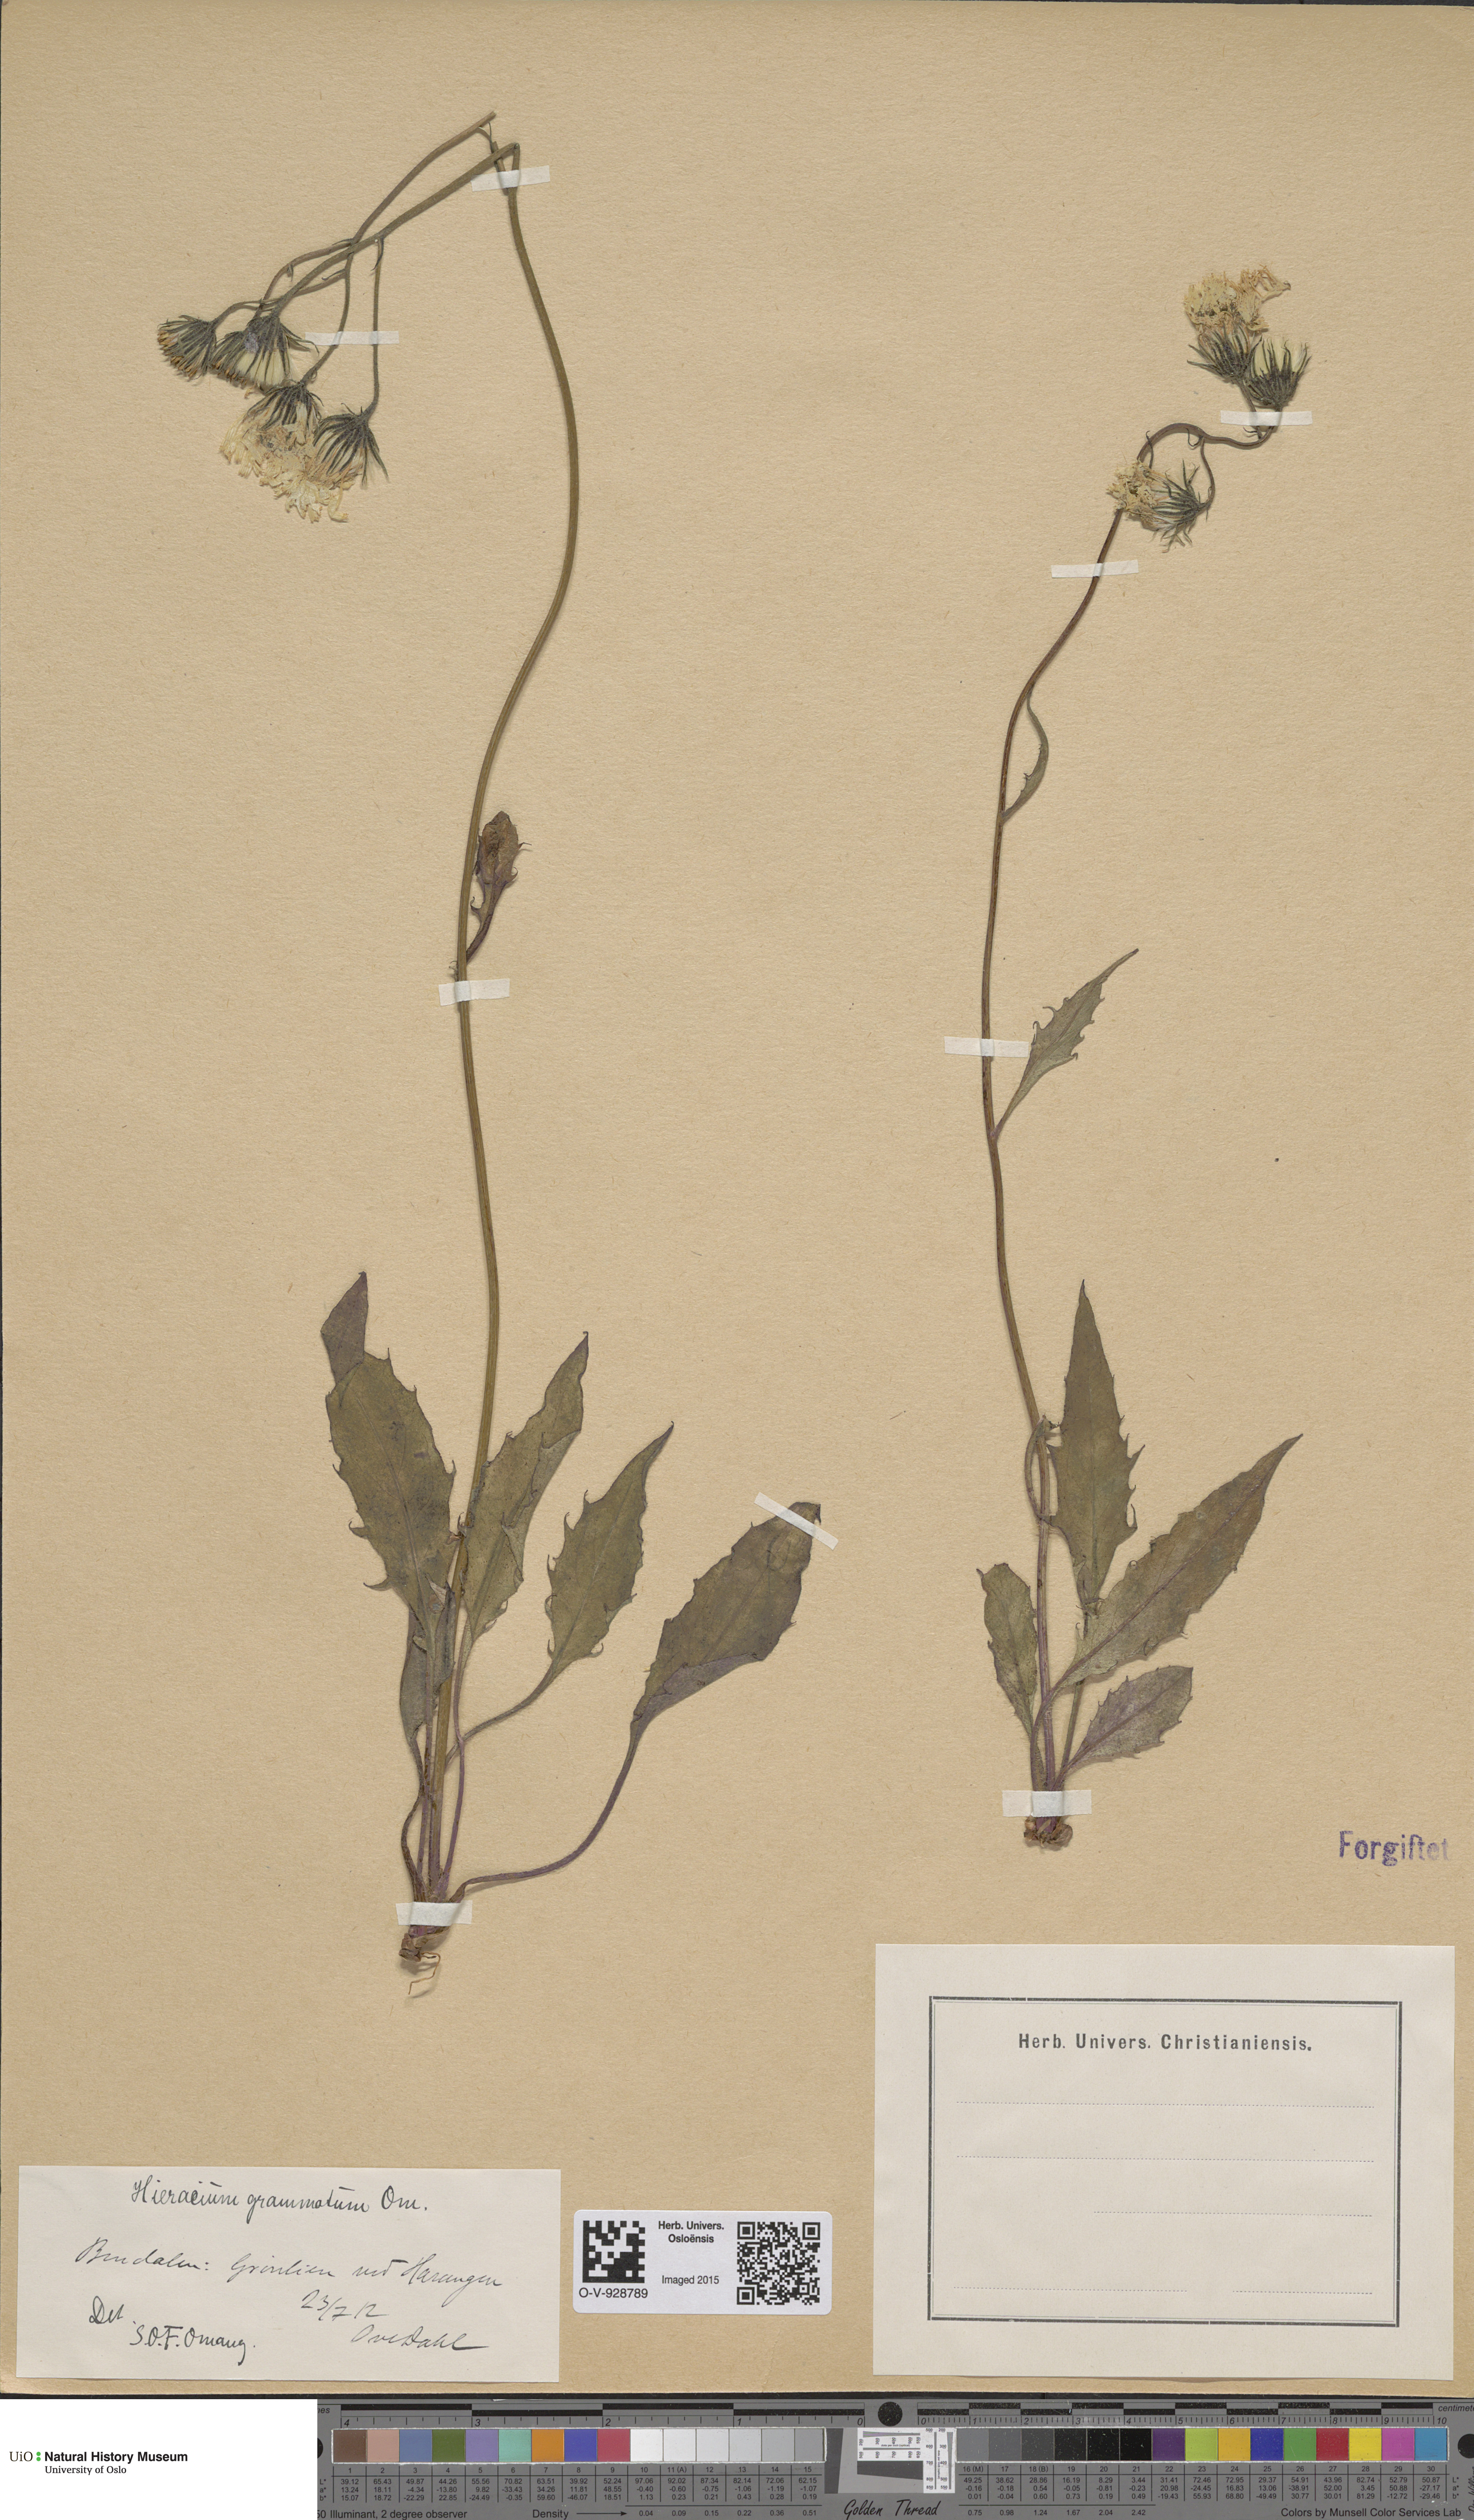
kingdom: Plantae
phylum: Tracheophyta
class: Magnoliopsida
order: Asterales
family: Asteraceae
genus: Hieracium
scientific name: Hieracium
